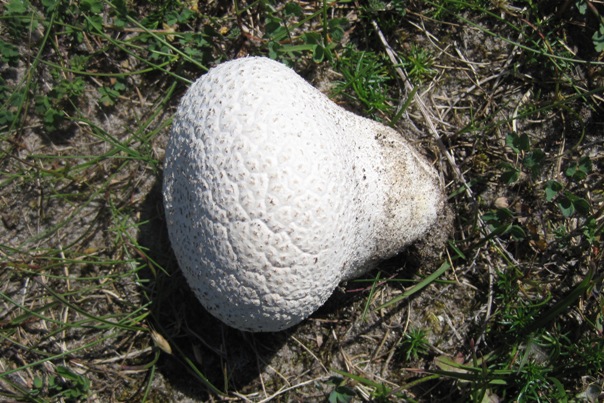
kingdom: Fungi
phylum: Basidiomycota
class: Agaricomycetes
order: Agaricales
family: Lycoperdaceae
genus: Bovistella
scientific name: Bovistella utriformis
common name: skællet støvbold
